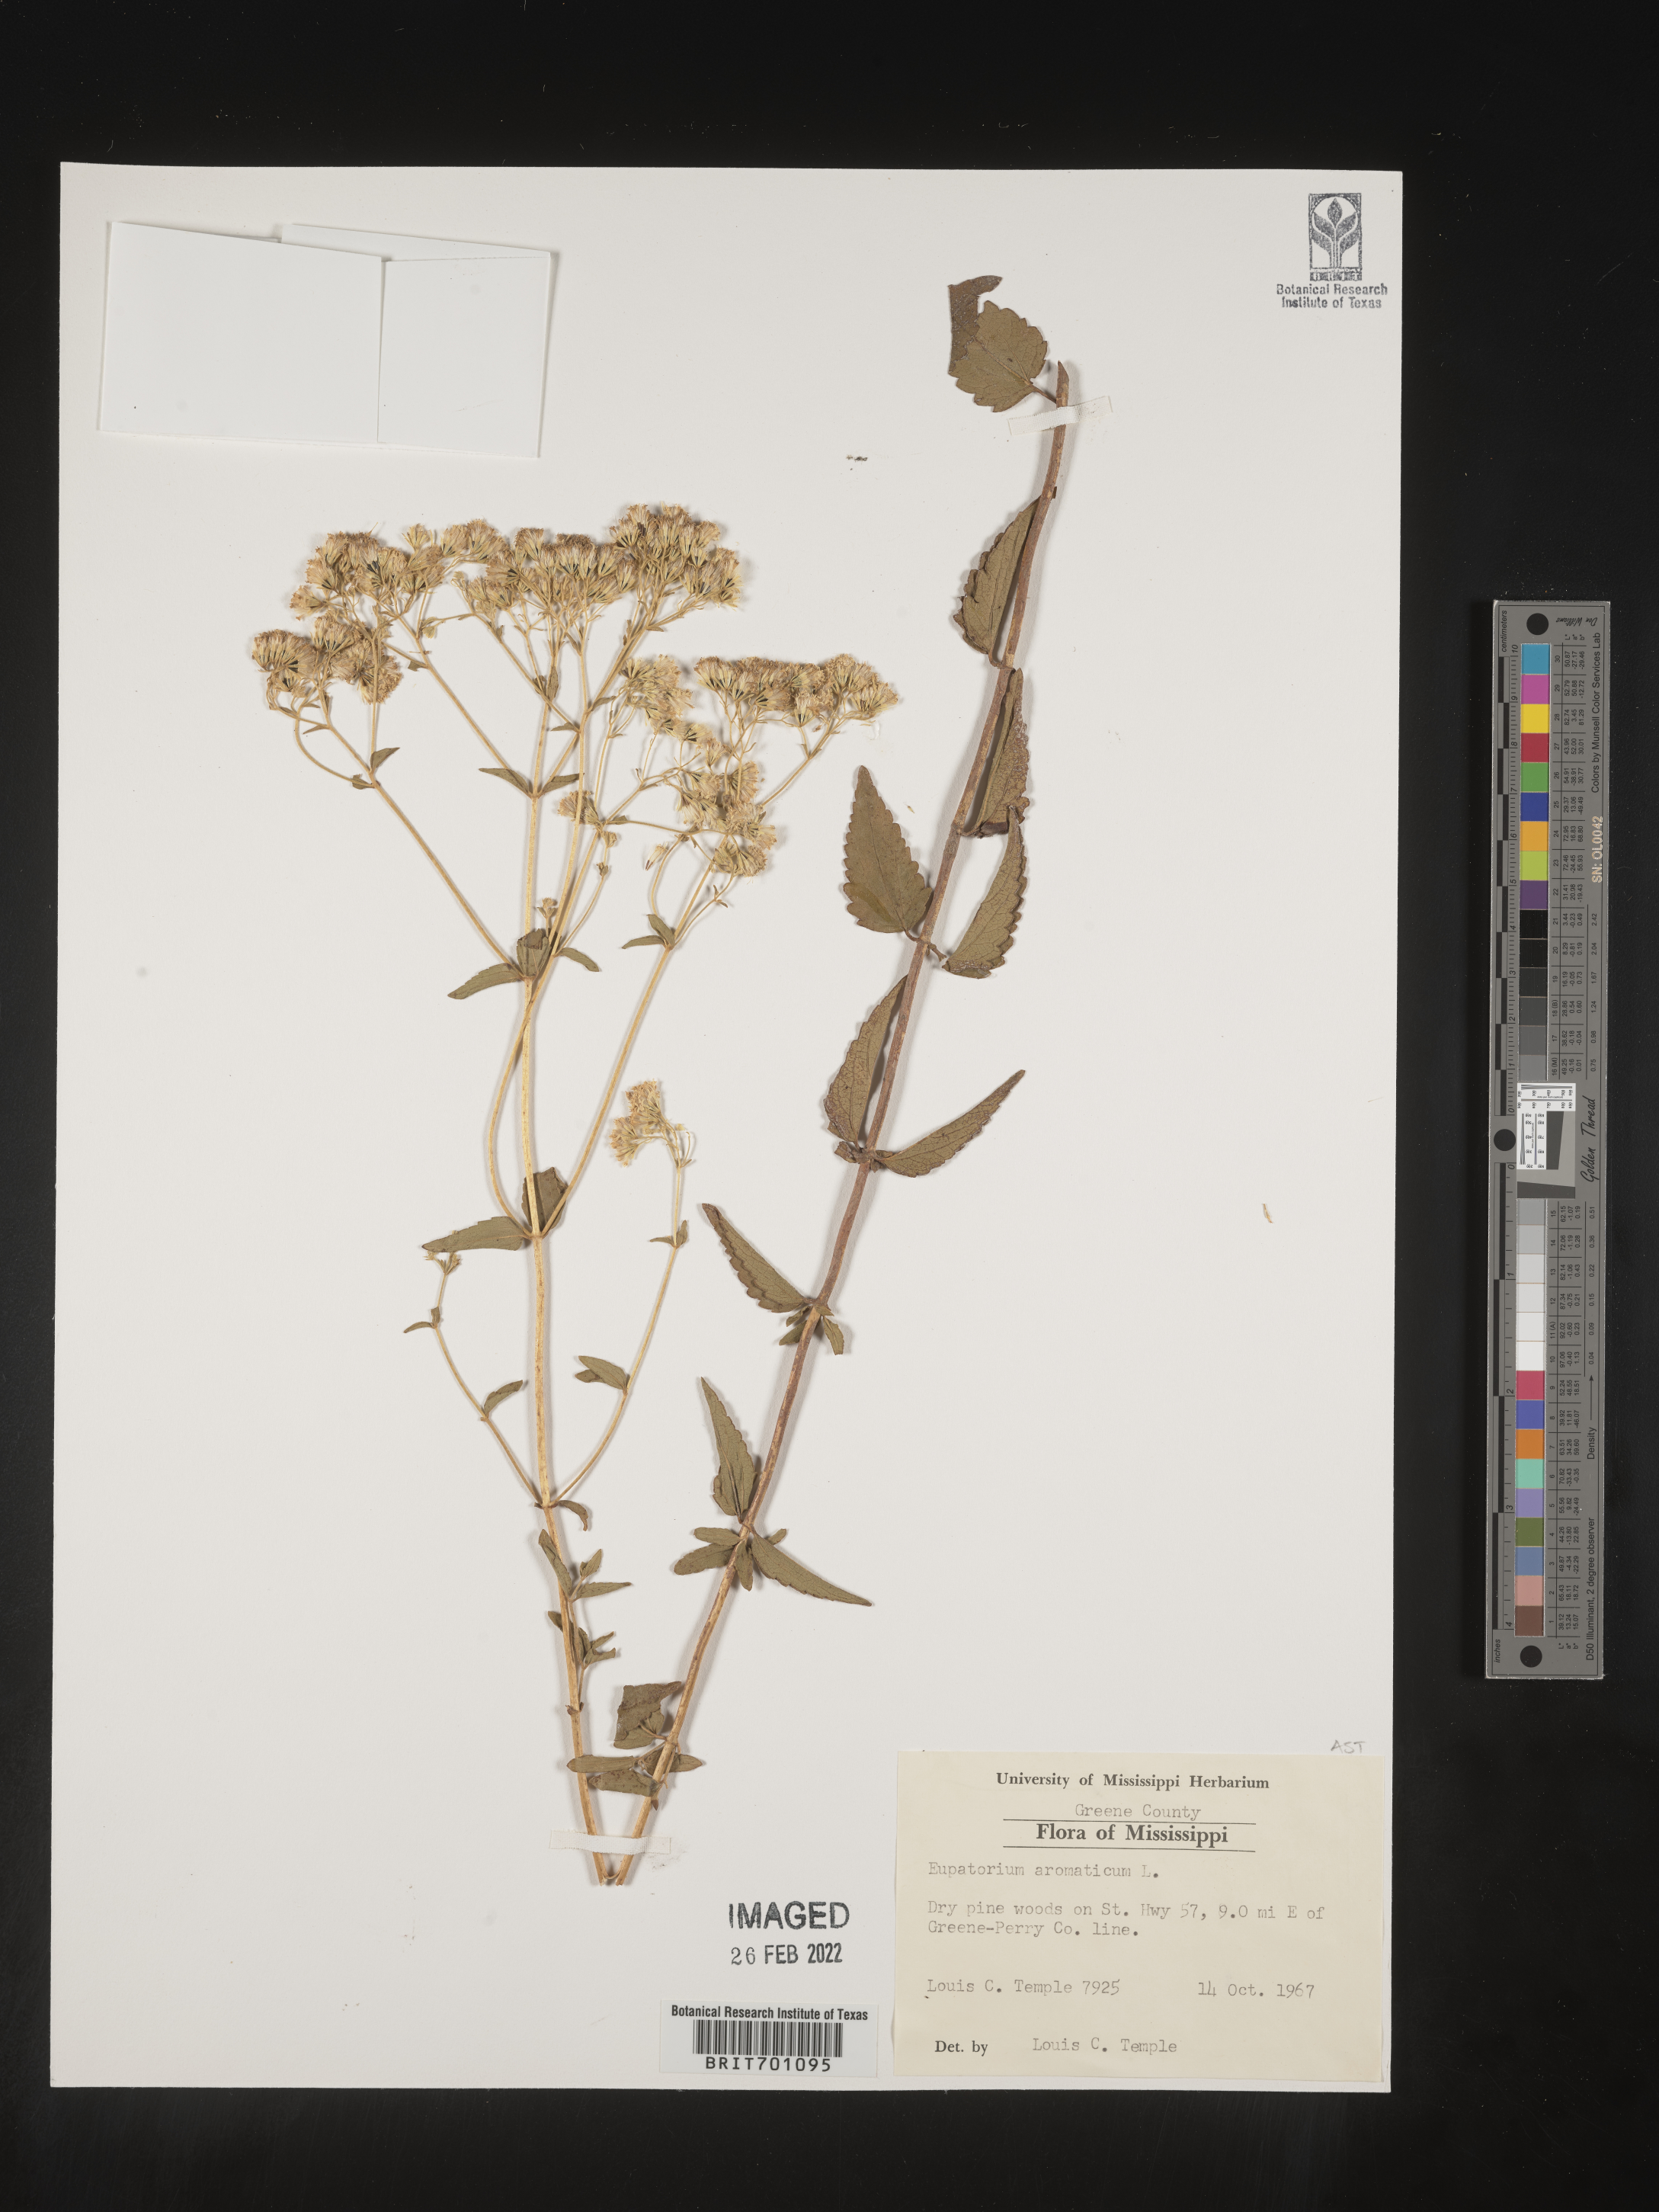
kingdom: Plantae
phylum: Tracheophyta
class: Magnoliopsida
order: Asterales
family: Asteraceae
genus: Eupatorium
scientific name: Eupatorium
